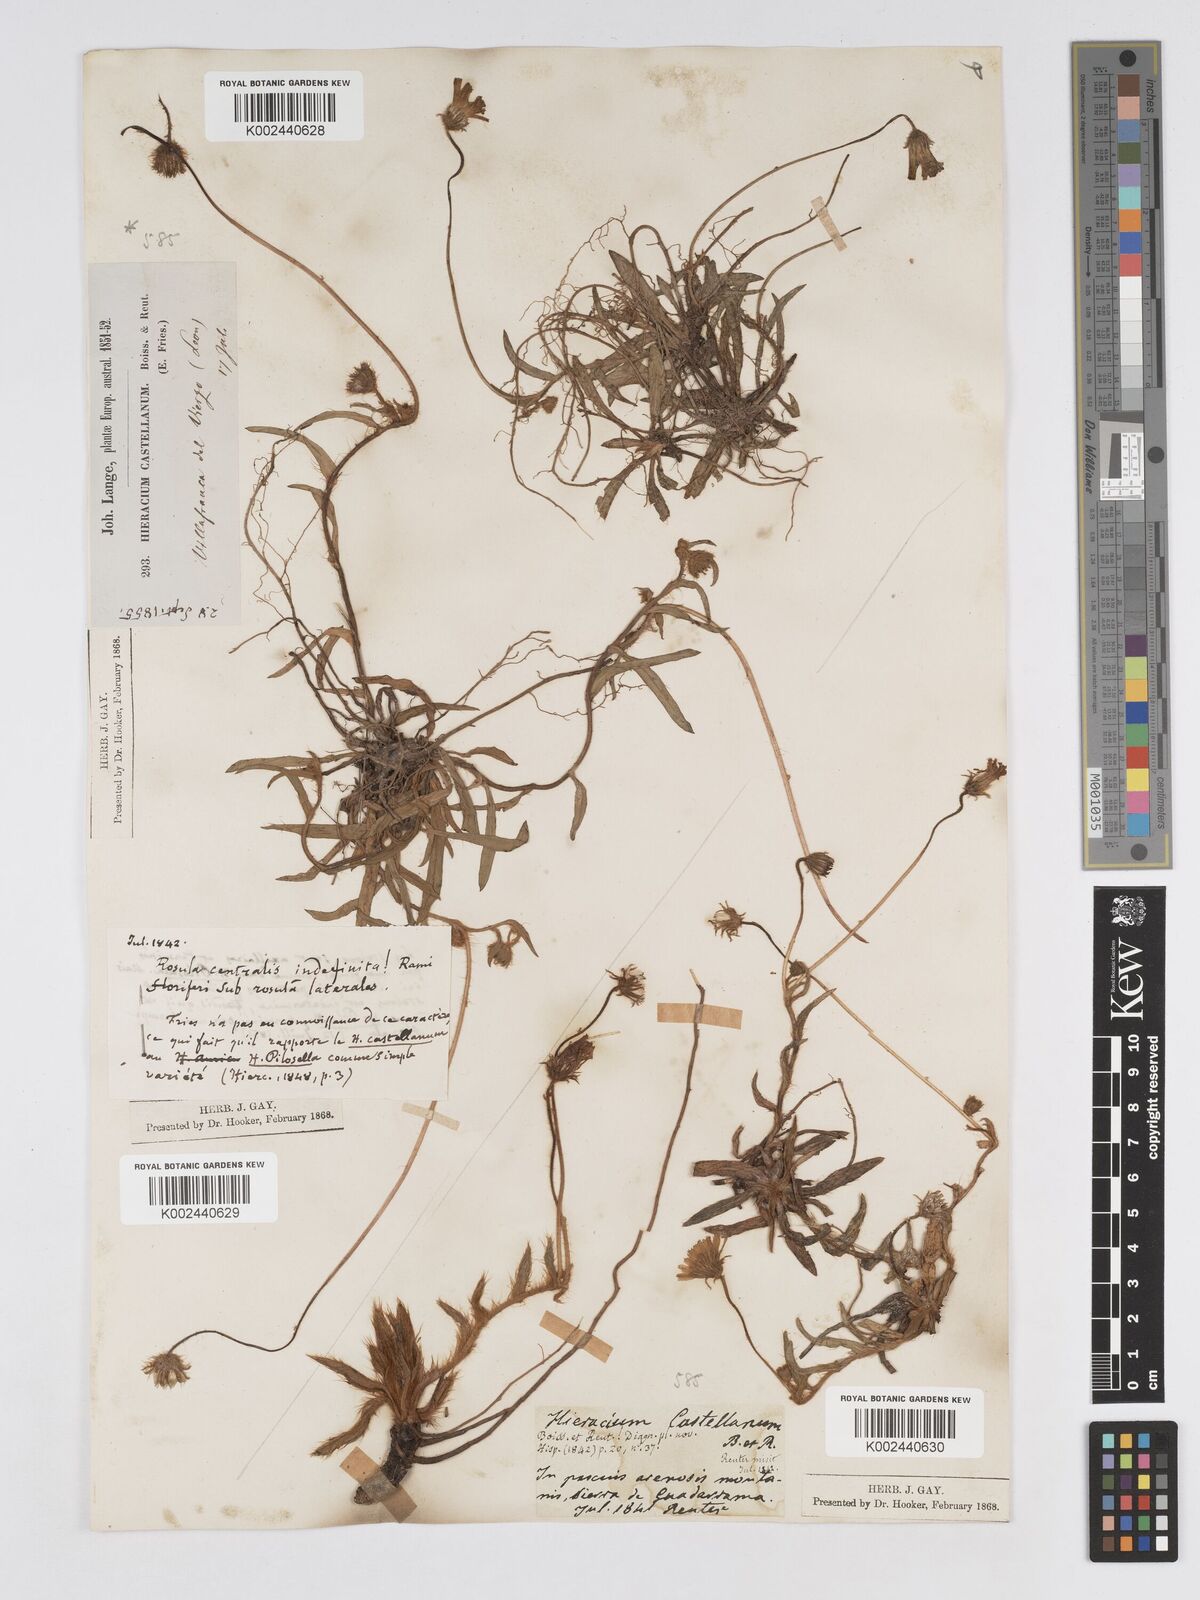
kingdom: Plantae
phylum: Tracheophyta
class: Magnoliopsida
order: Asterales
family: Asteraceae
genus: Pilosella
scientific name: Pilosella castellana
